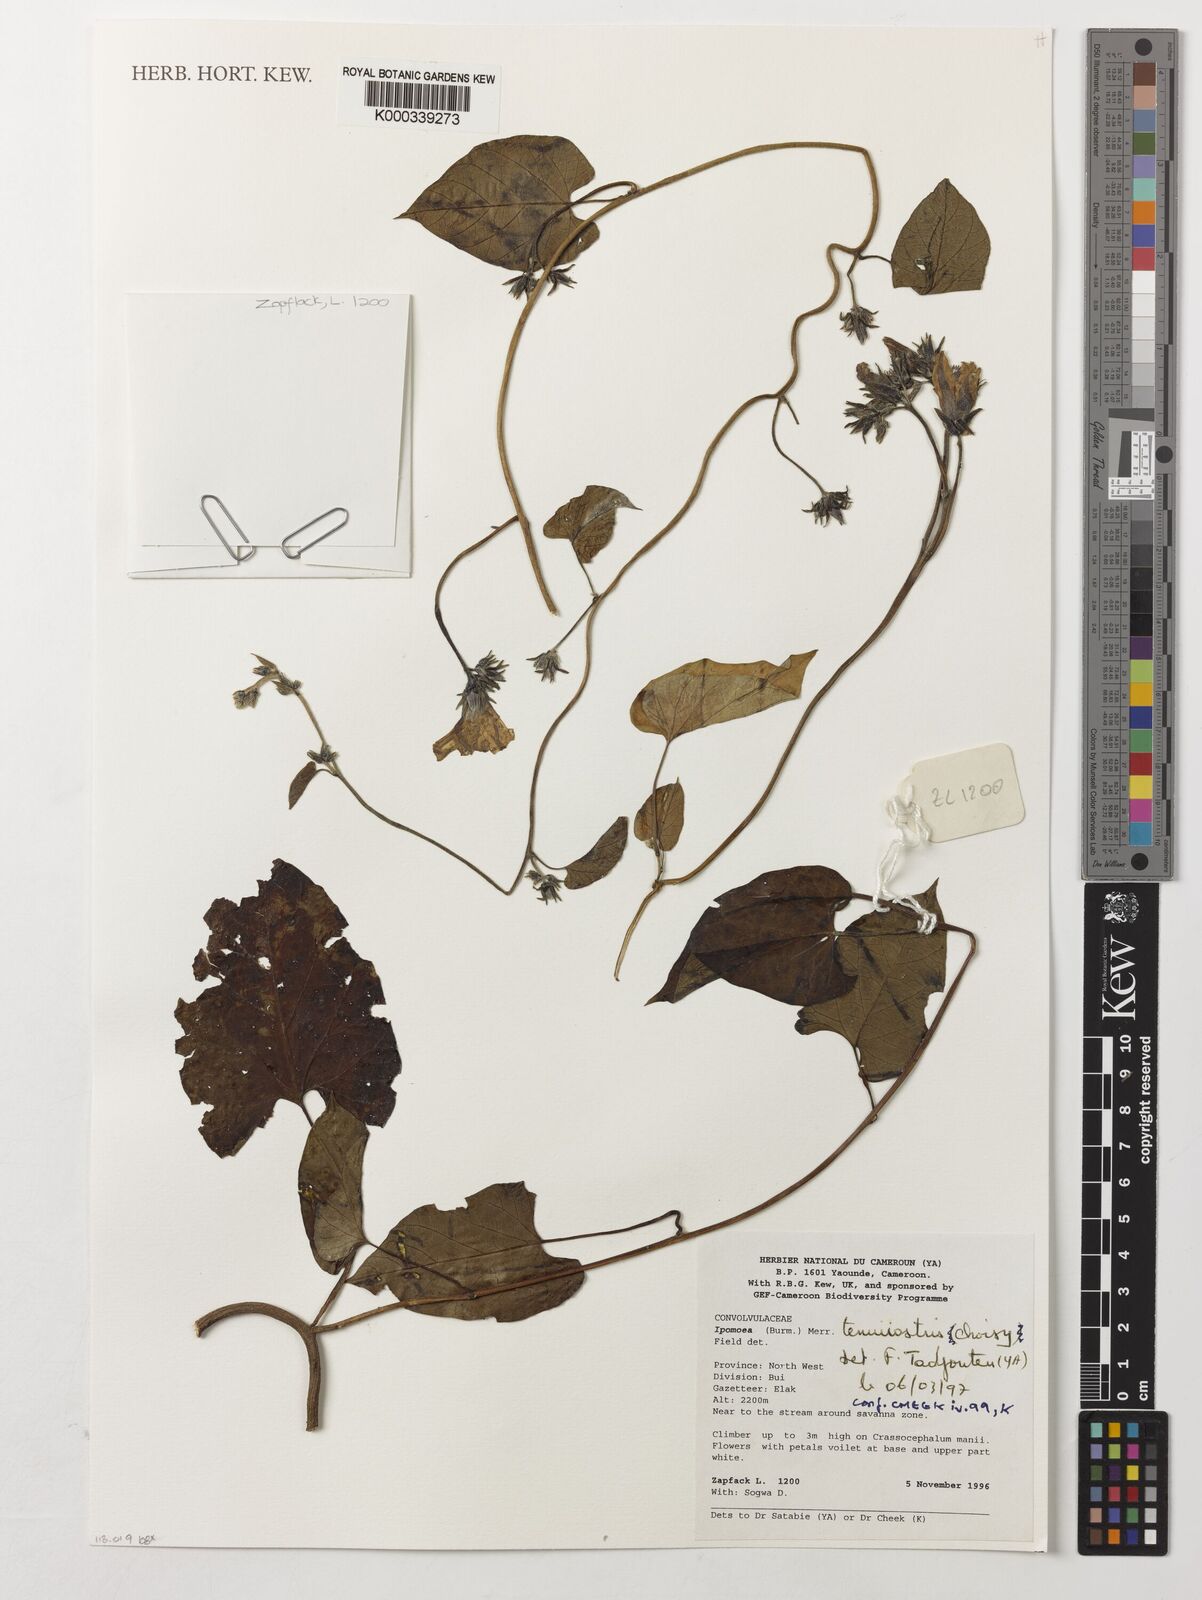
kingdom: Plantae
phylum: Tracheophyta
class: Magnoliopsida
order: Solanales
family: Convolvulaceae
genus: Ipomoea
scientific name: Ipomoea tenuirostris
